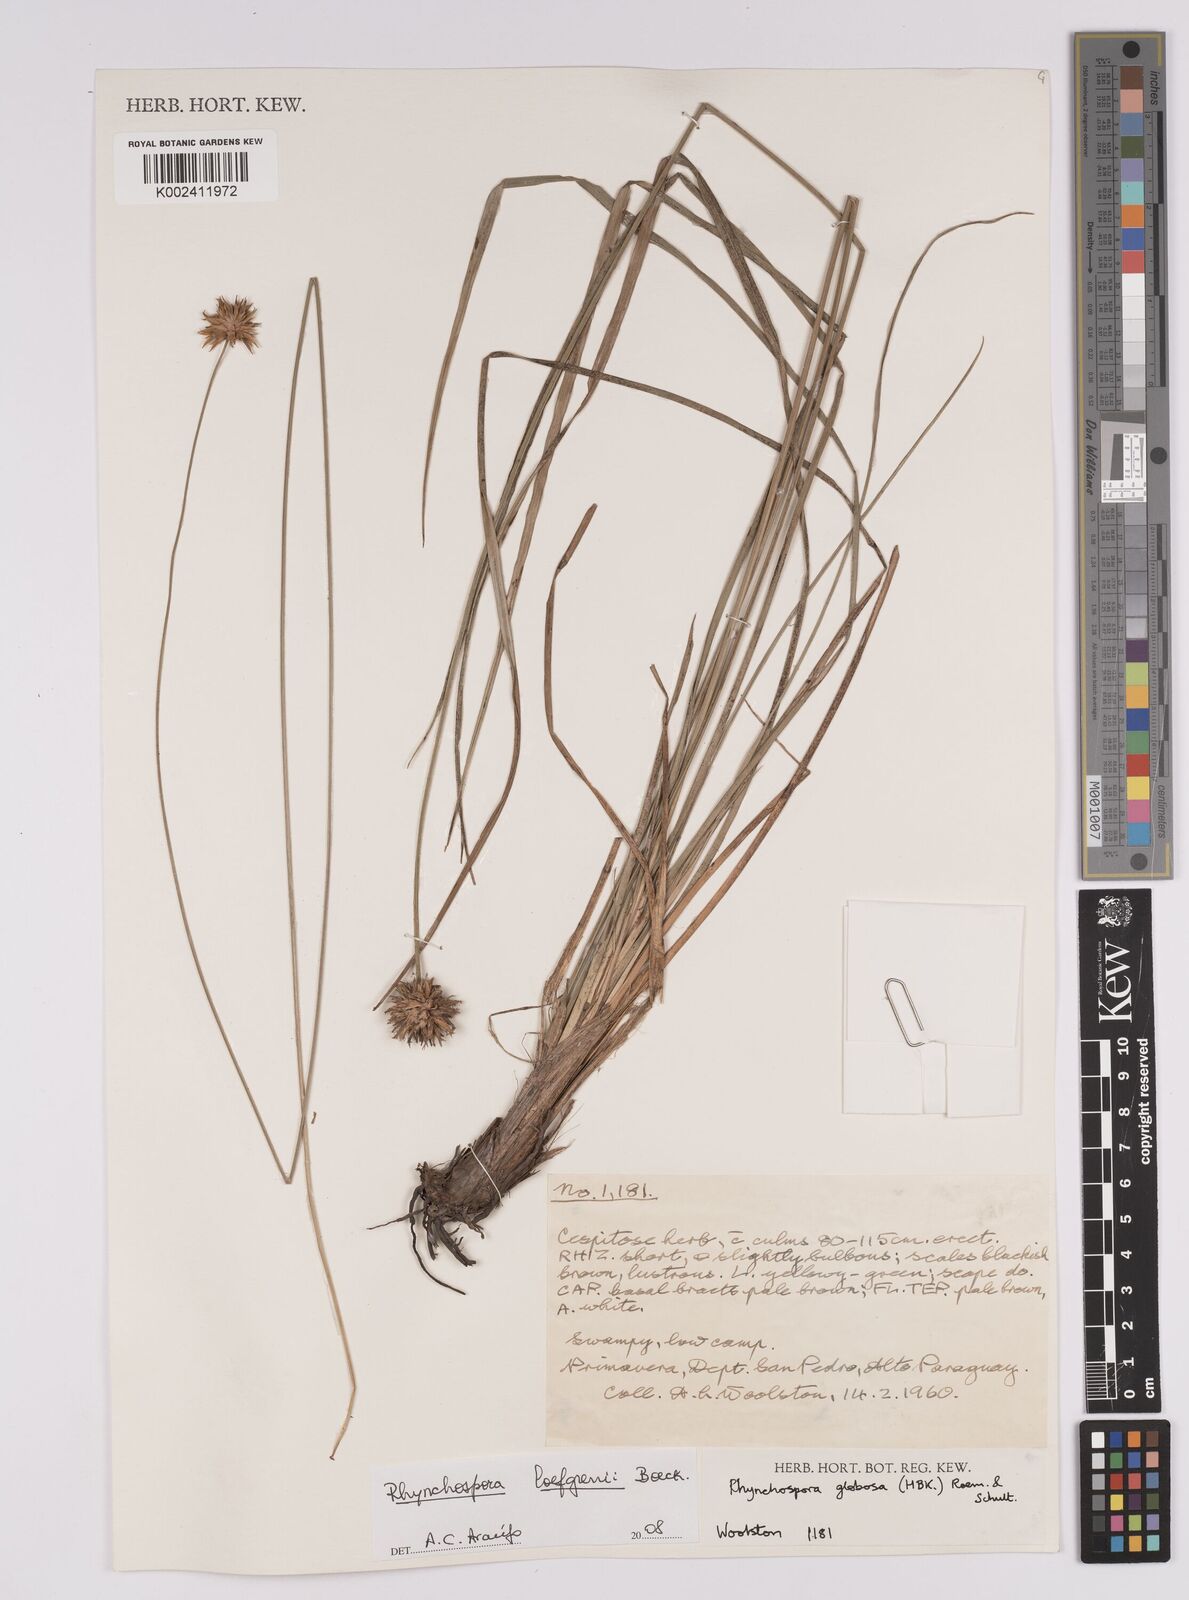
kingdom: Plantae
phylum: Tracheophyta
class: Liliopsida
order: Poales
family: Cyperaceae
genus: Rhynchospora
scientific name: Rhynchospora loefgrenii
